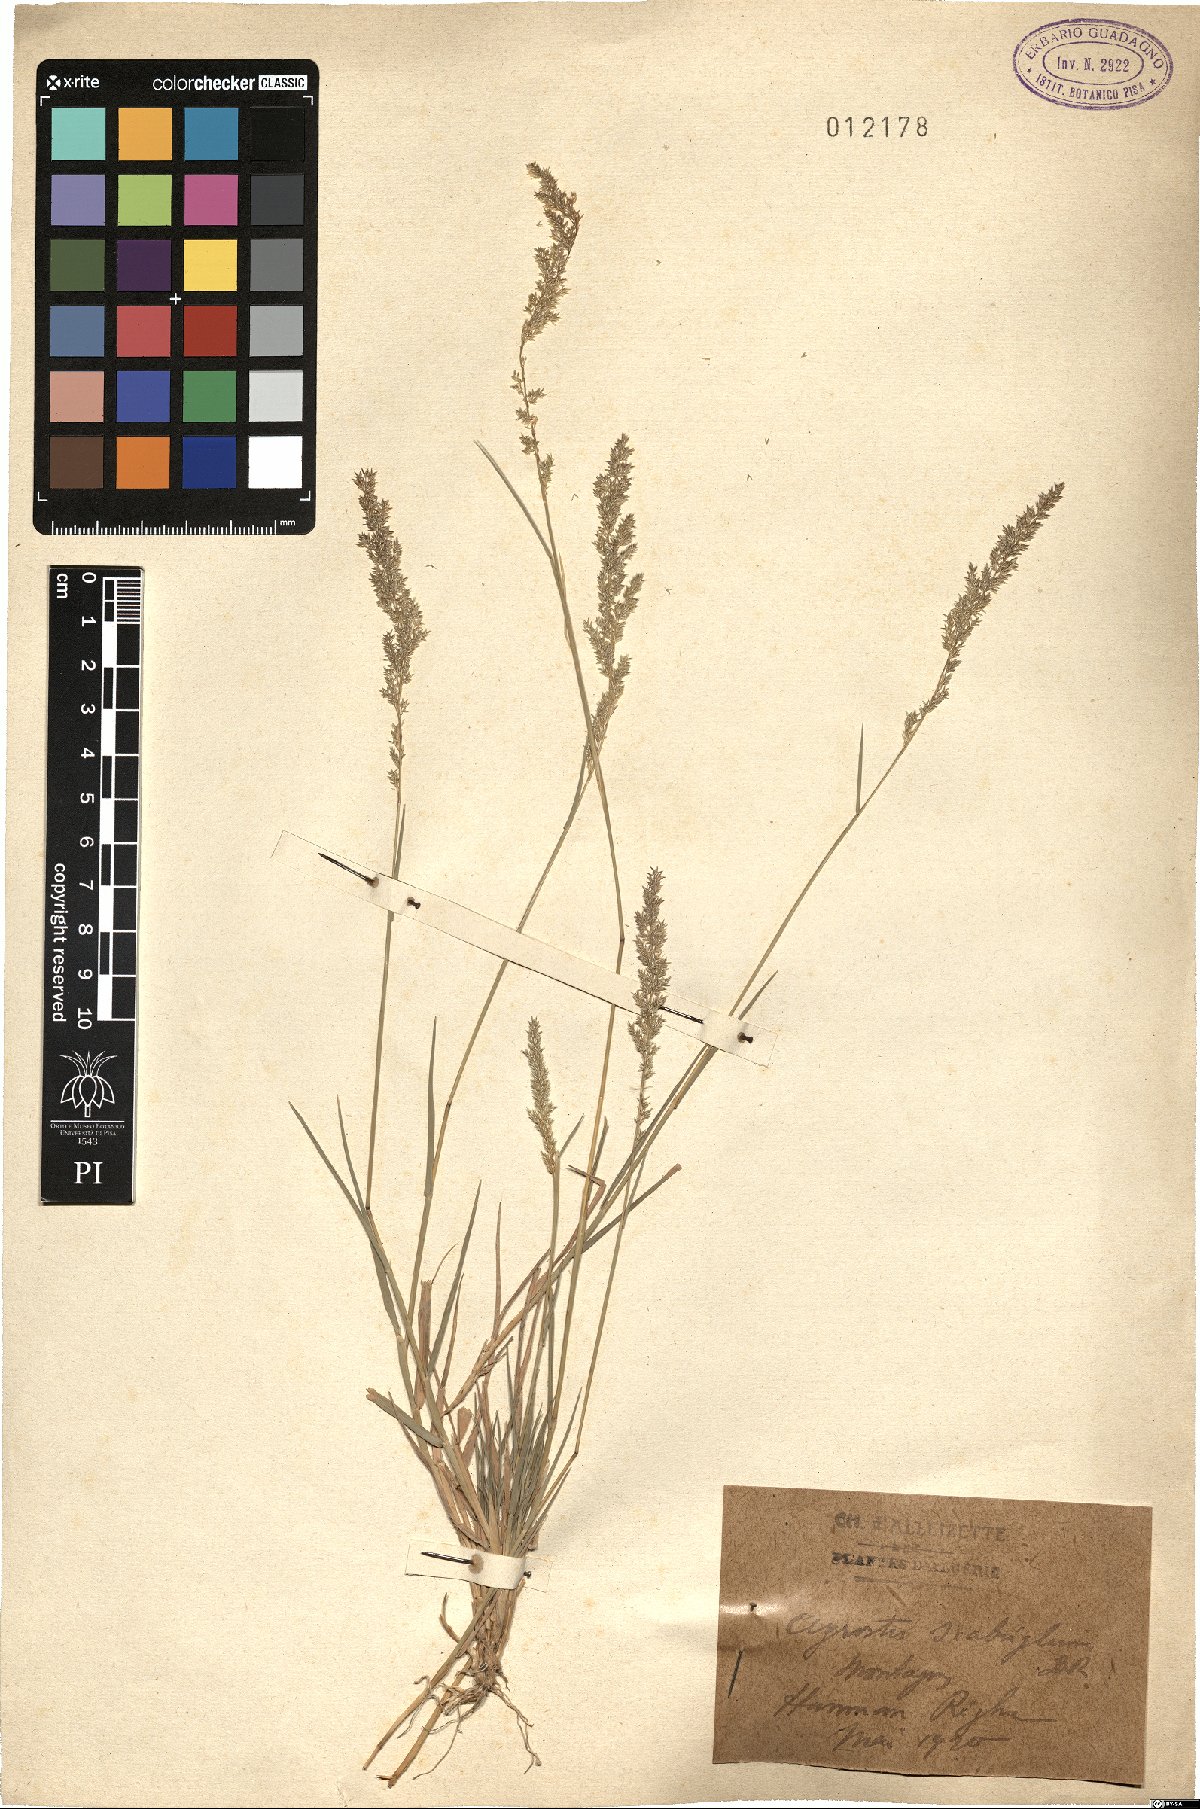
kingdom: Plantae
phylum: Tracheophyta
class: Liliopsida
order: Poales
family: Poaceae
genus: Agrostis
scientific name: Agrostis stolonifera
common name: Creeping bentgrass
